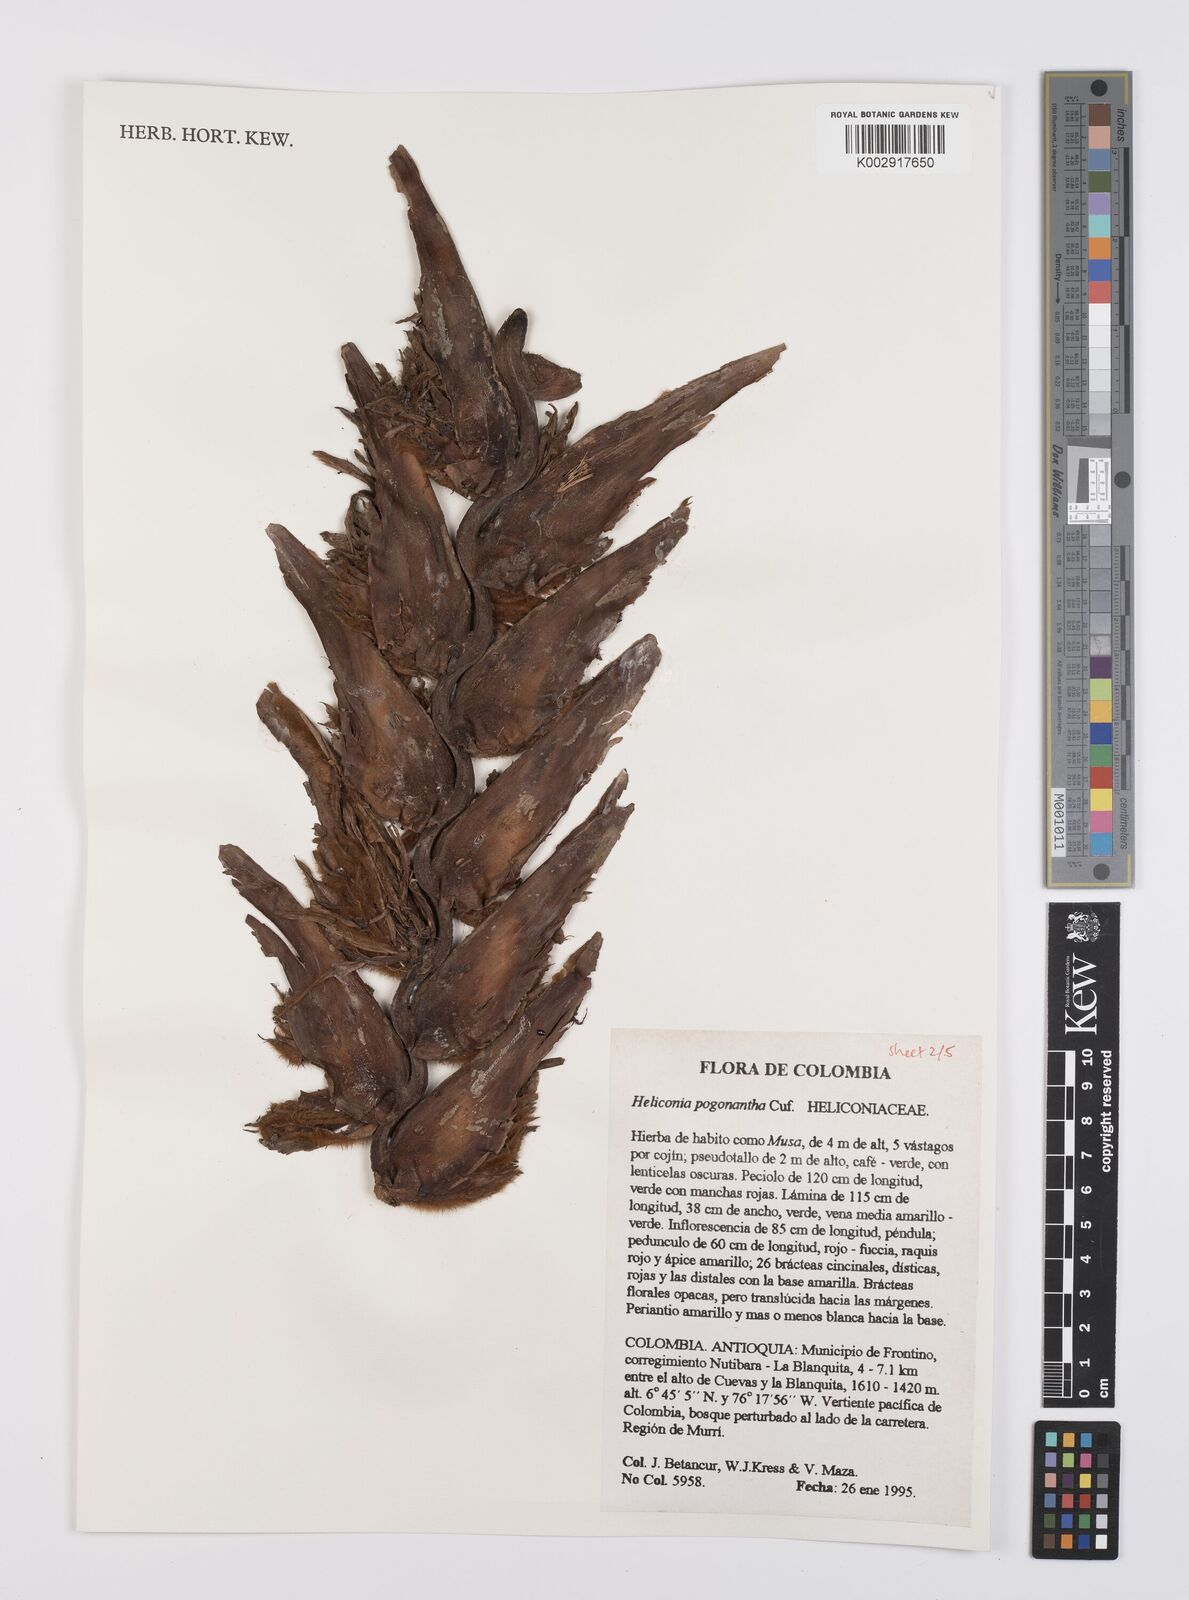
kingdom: Plantae
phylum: Tracheophyta
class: Liliopsida
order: Zingiberales
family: Heliconiaceae
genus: Heliconia
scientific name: Heliconia pogonantha
